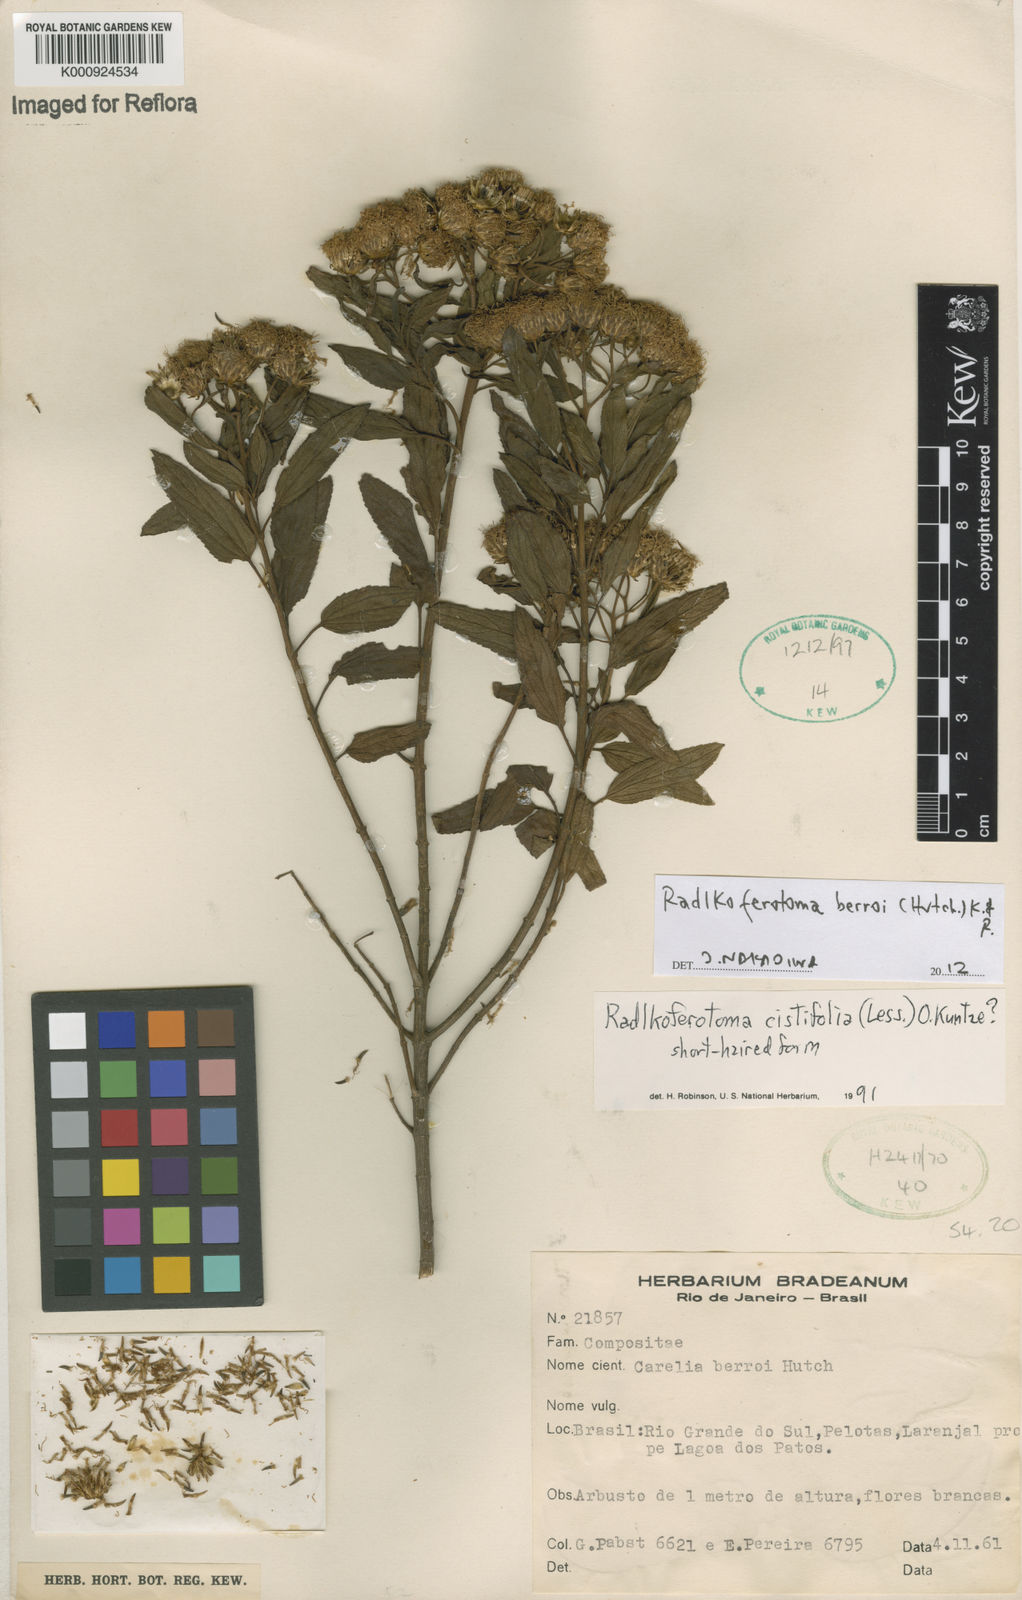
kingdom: Plantae
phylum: Tracheophyta
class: Magnoliopsida
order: Asterales
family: Asteraceae
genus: Radlkoferotoma
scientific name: Radlkoferotoma berroi
